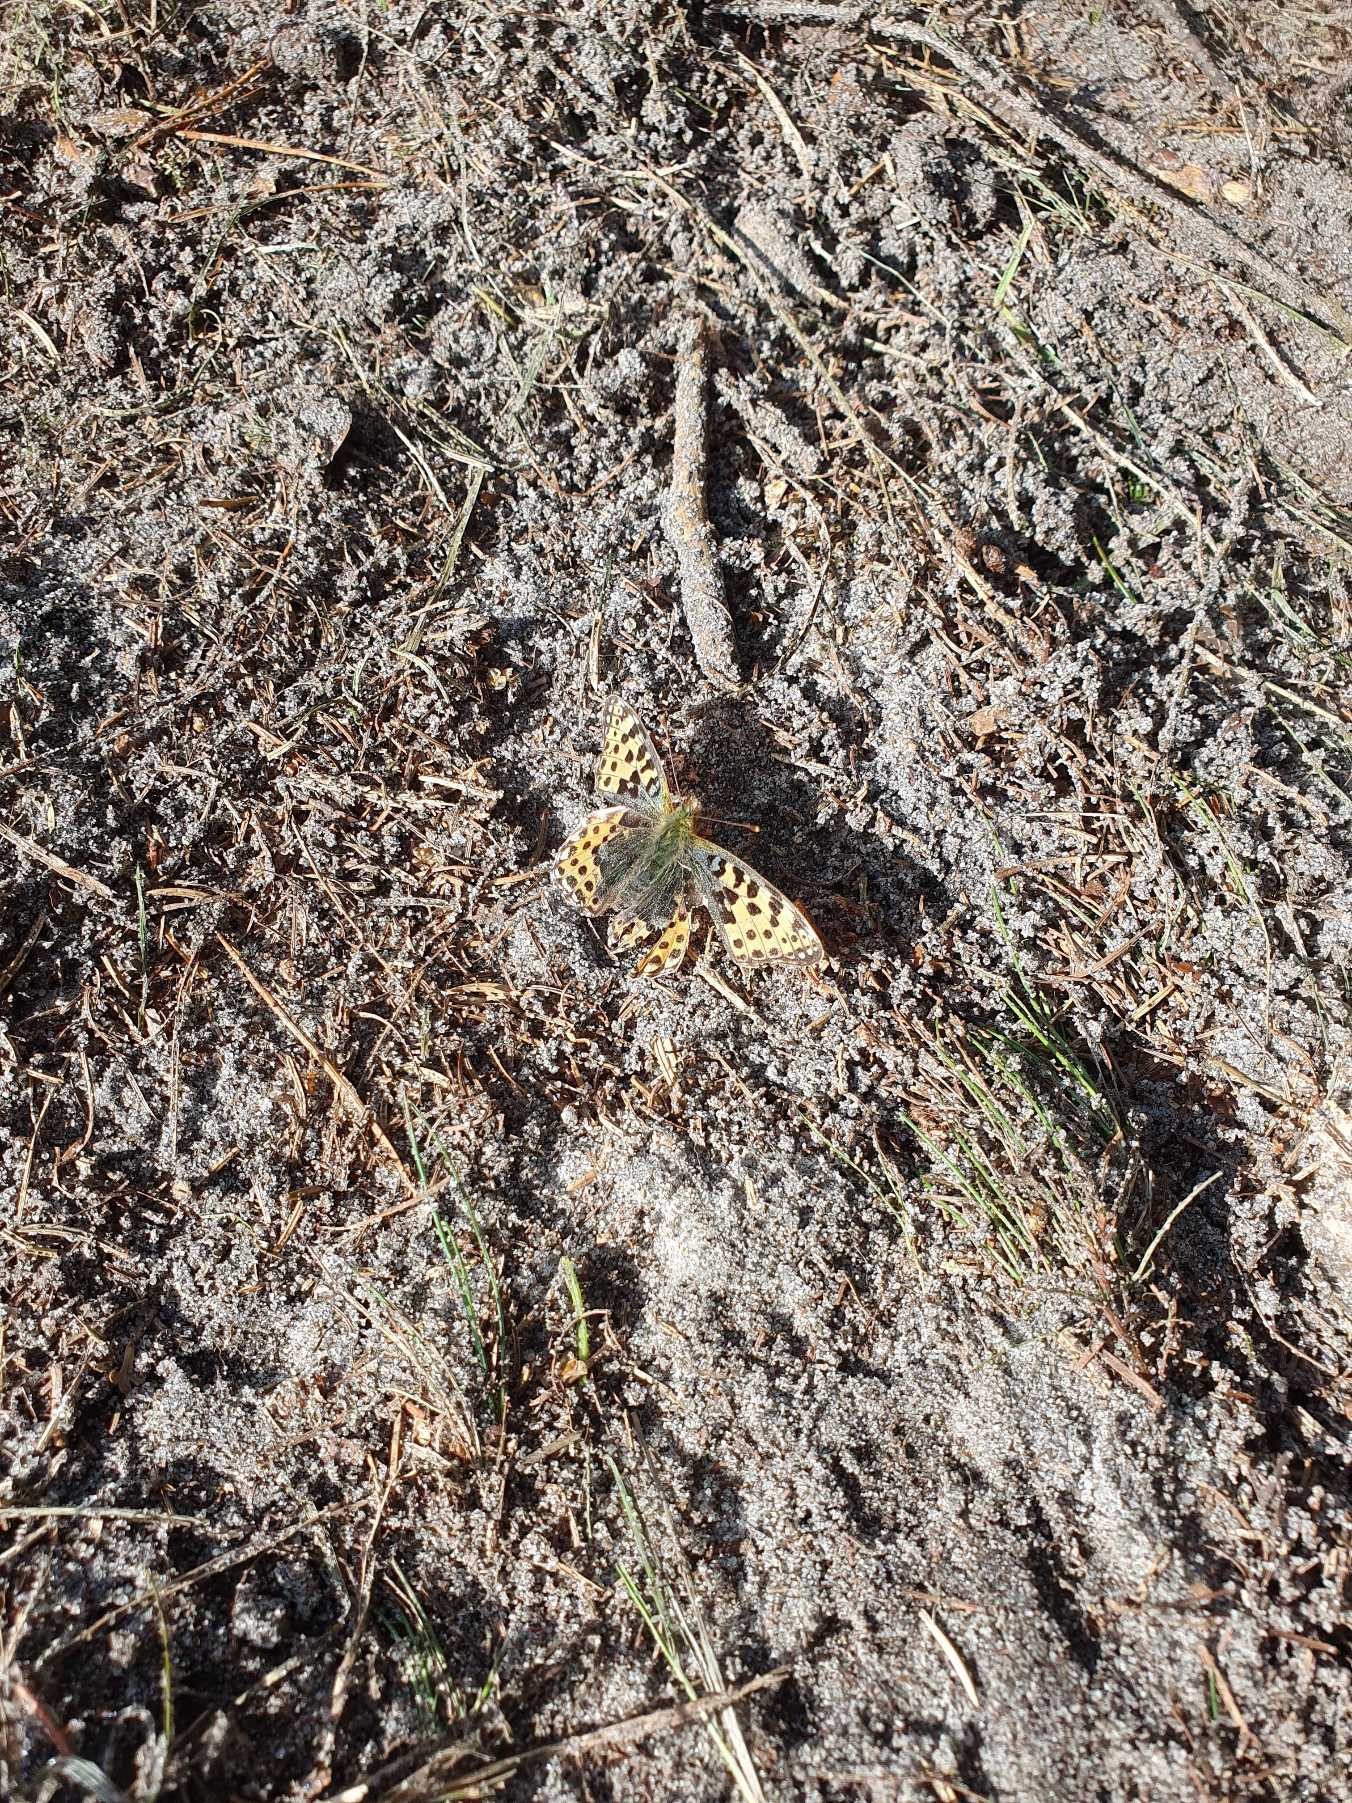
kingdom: Animalia
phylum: Arthropoda
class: Insecta
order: Lepidoptera
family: Nymphalidae
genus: Issoria
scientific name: Issoria lathonia
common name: Storplettet perlemorsommerfugl
